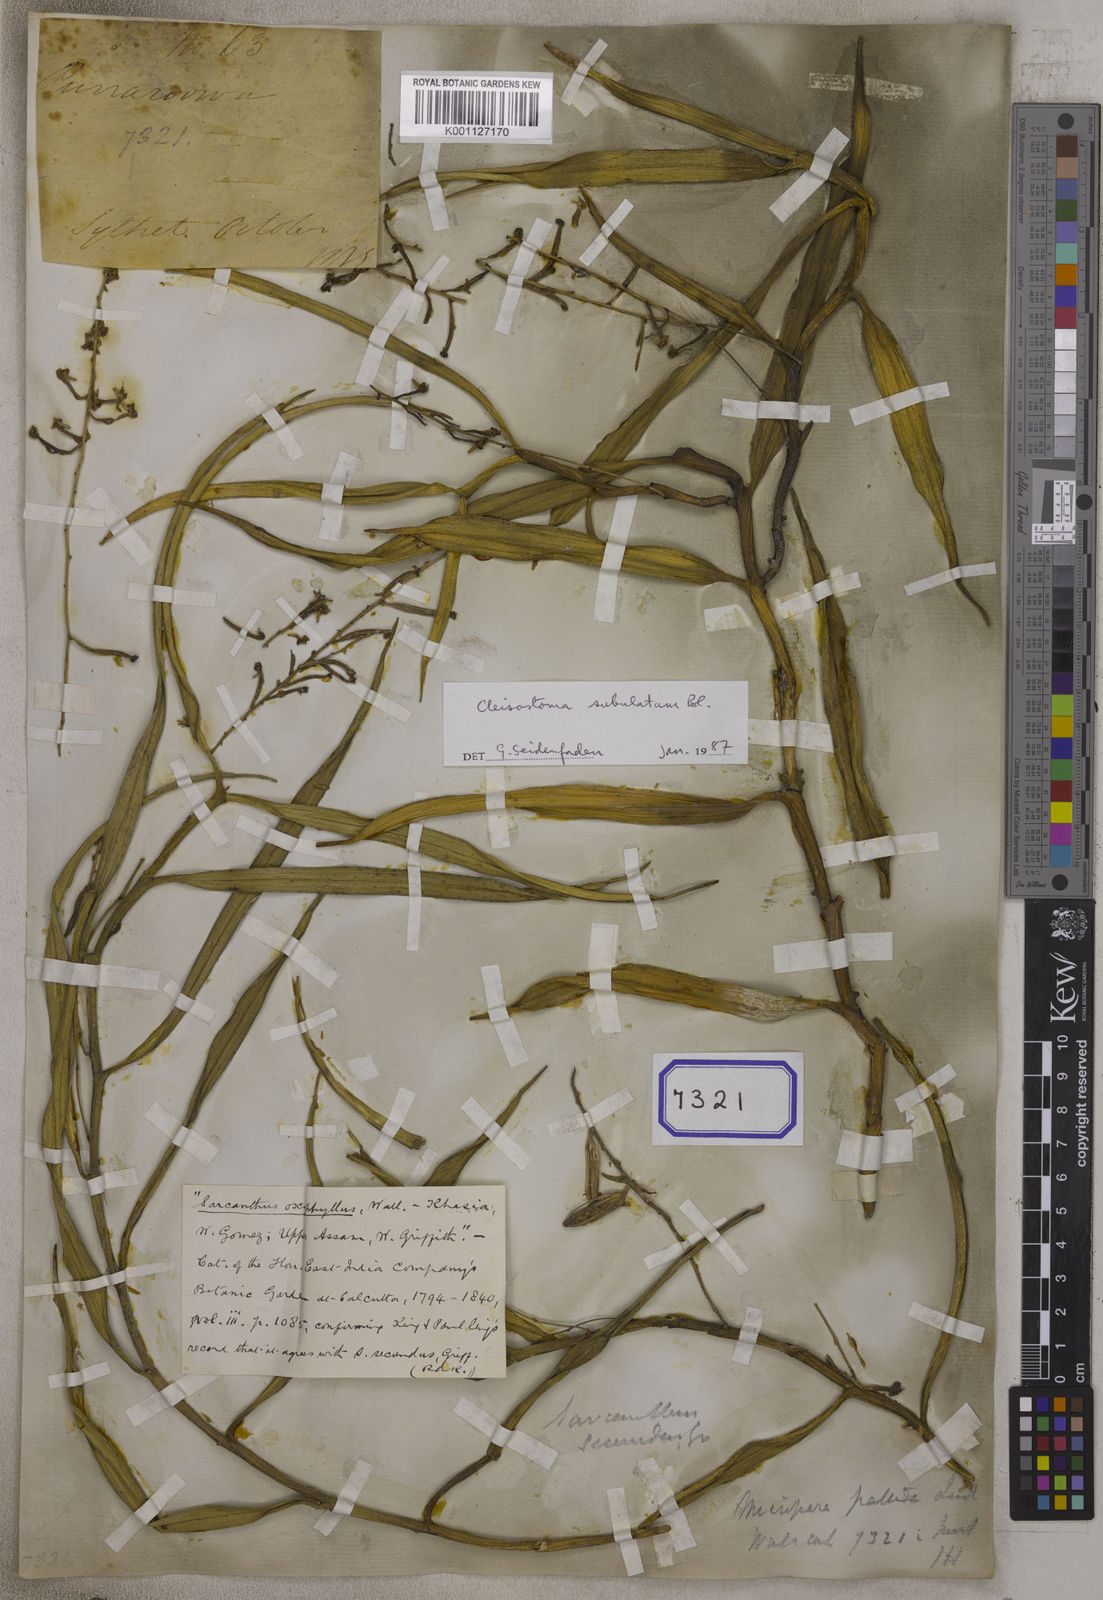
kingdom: Plantae
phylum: Tracheophyta
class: Liliopsida
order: Asparagales
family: Orchidaceae
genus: Micropera
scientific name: Micropera pallida
